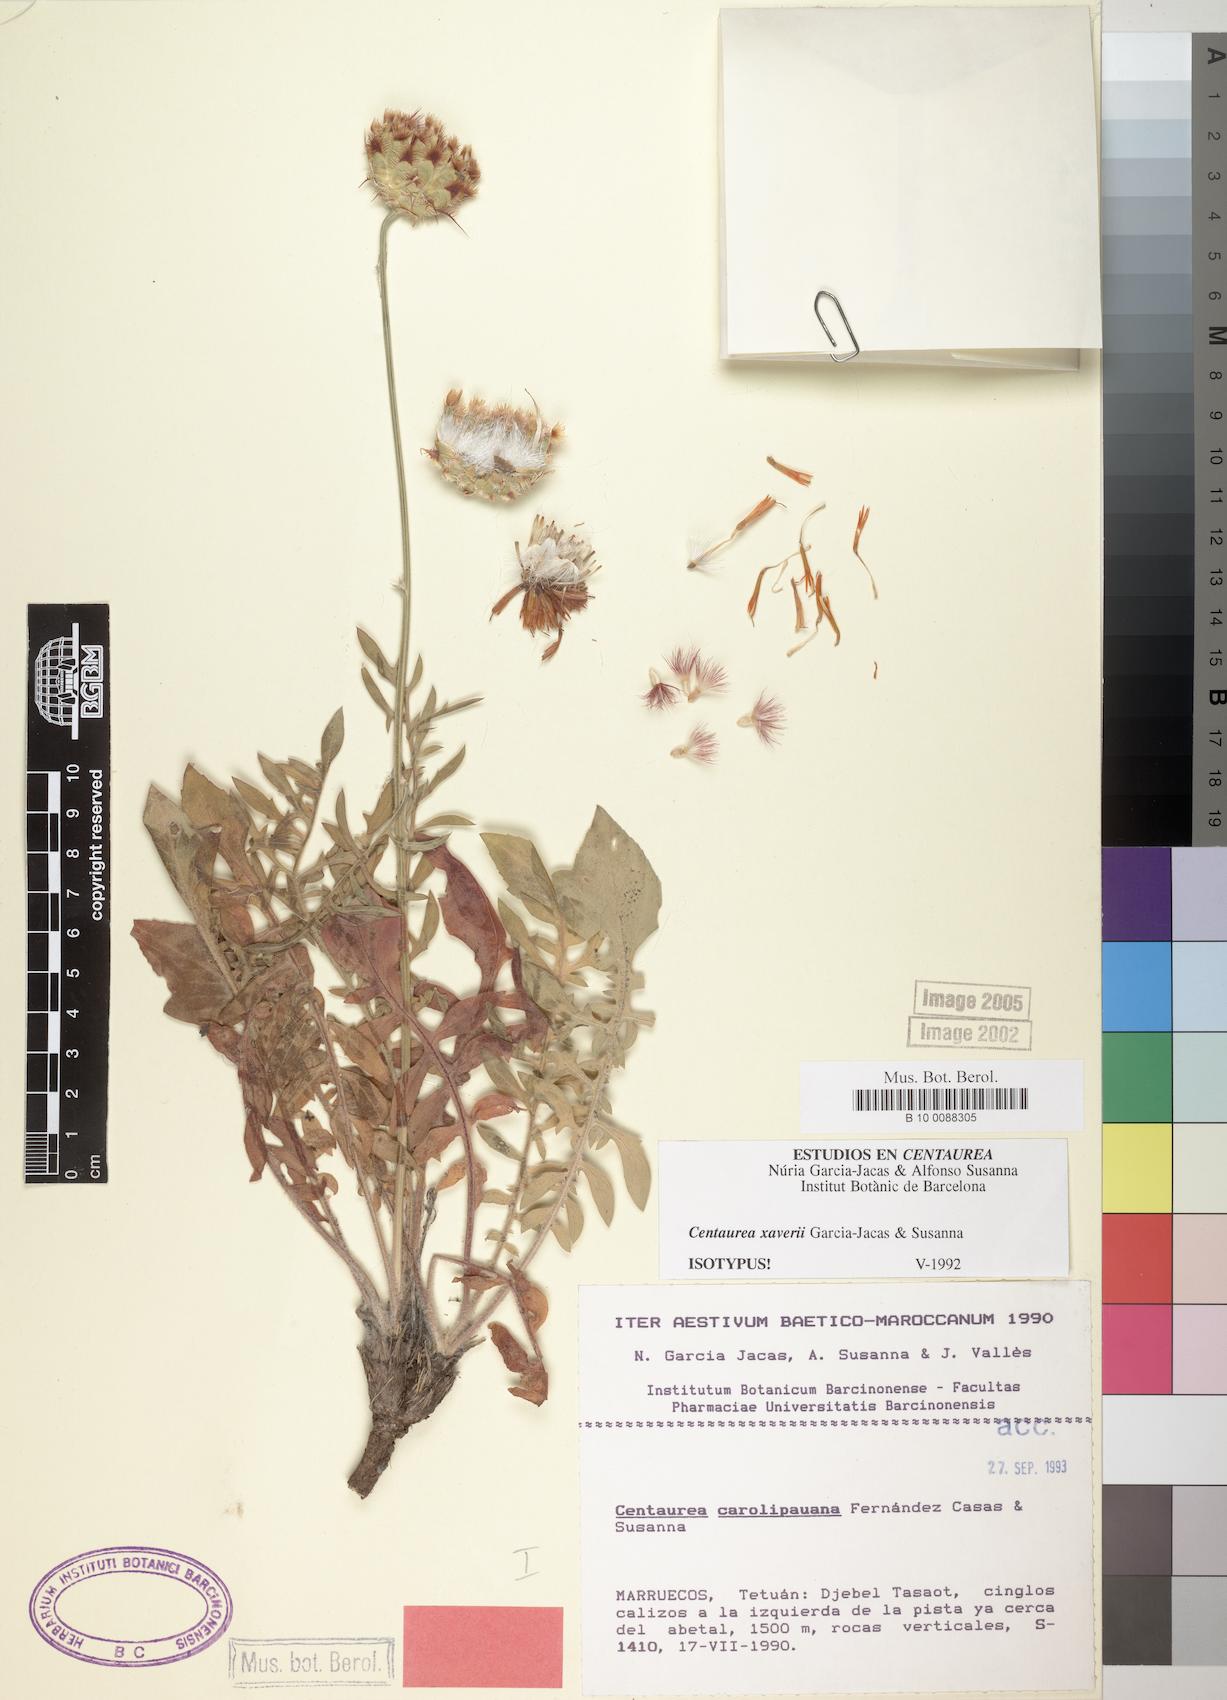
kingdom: Plantae
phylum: Tracheophyta
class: Magnoliopsida
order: Asterales
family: Asteraceae
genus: Centaurea
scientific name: Centaurea xaveri
